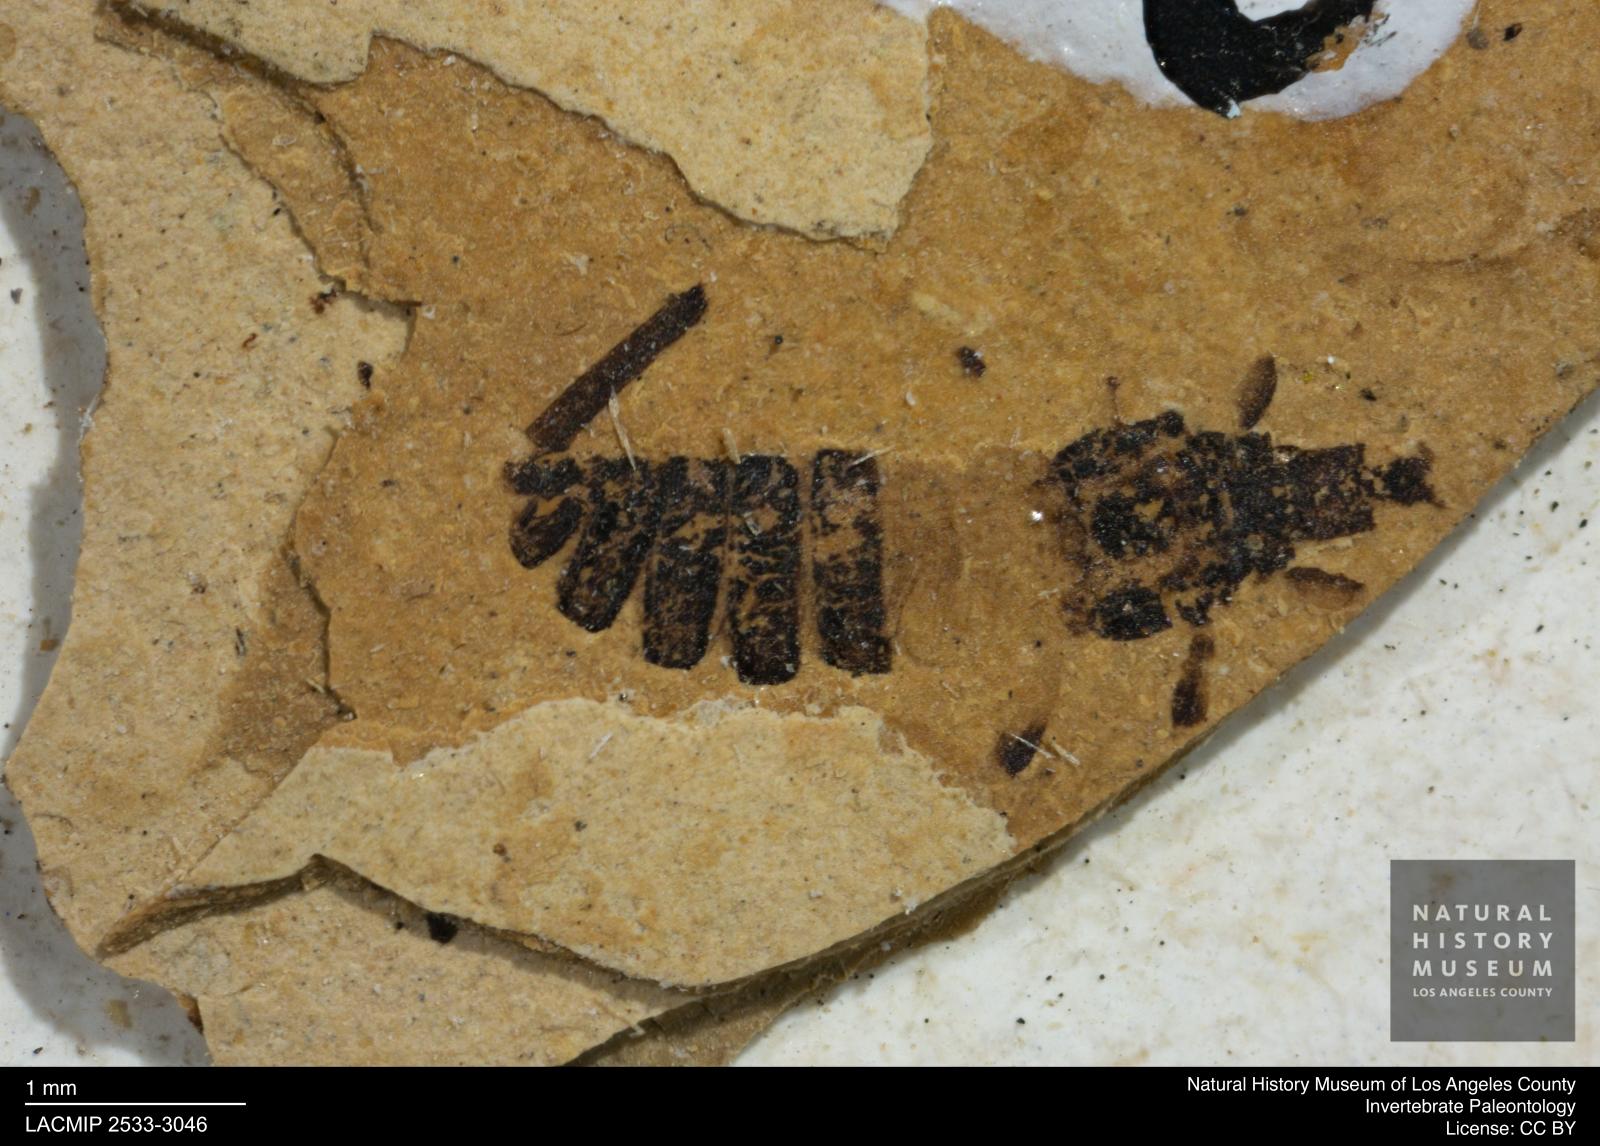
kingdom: Animalia
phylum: Arthropoda
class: Insecta
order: Thysanoptera
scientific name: Thysanoptera
